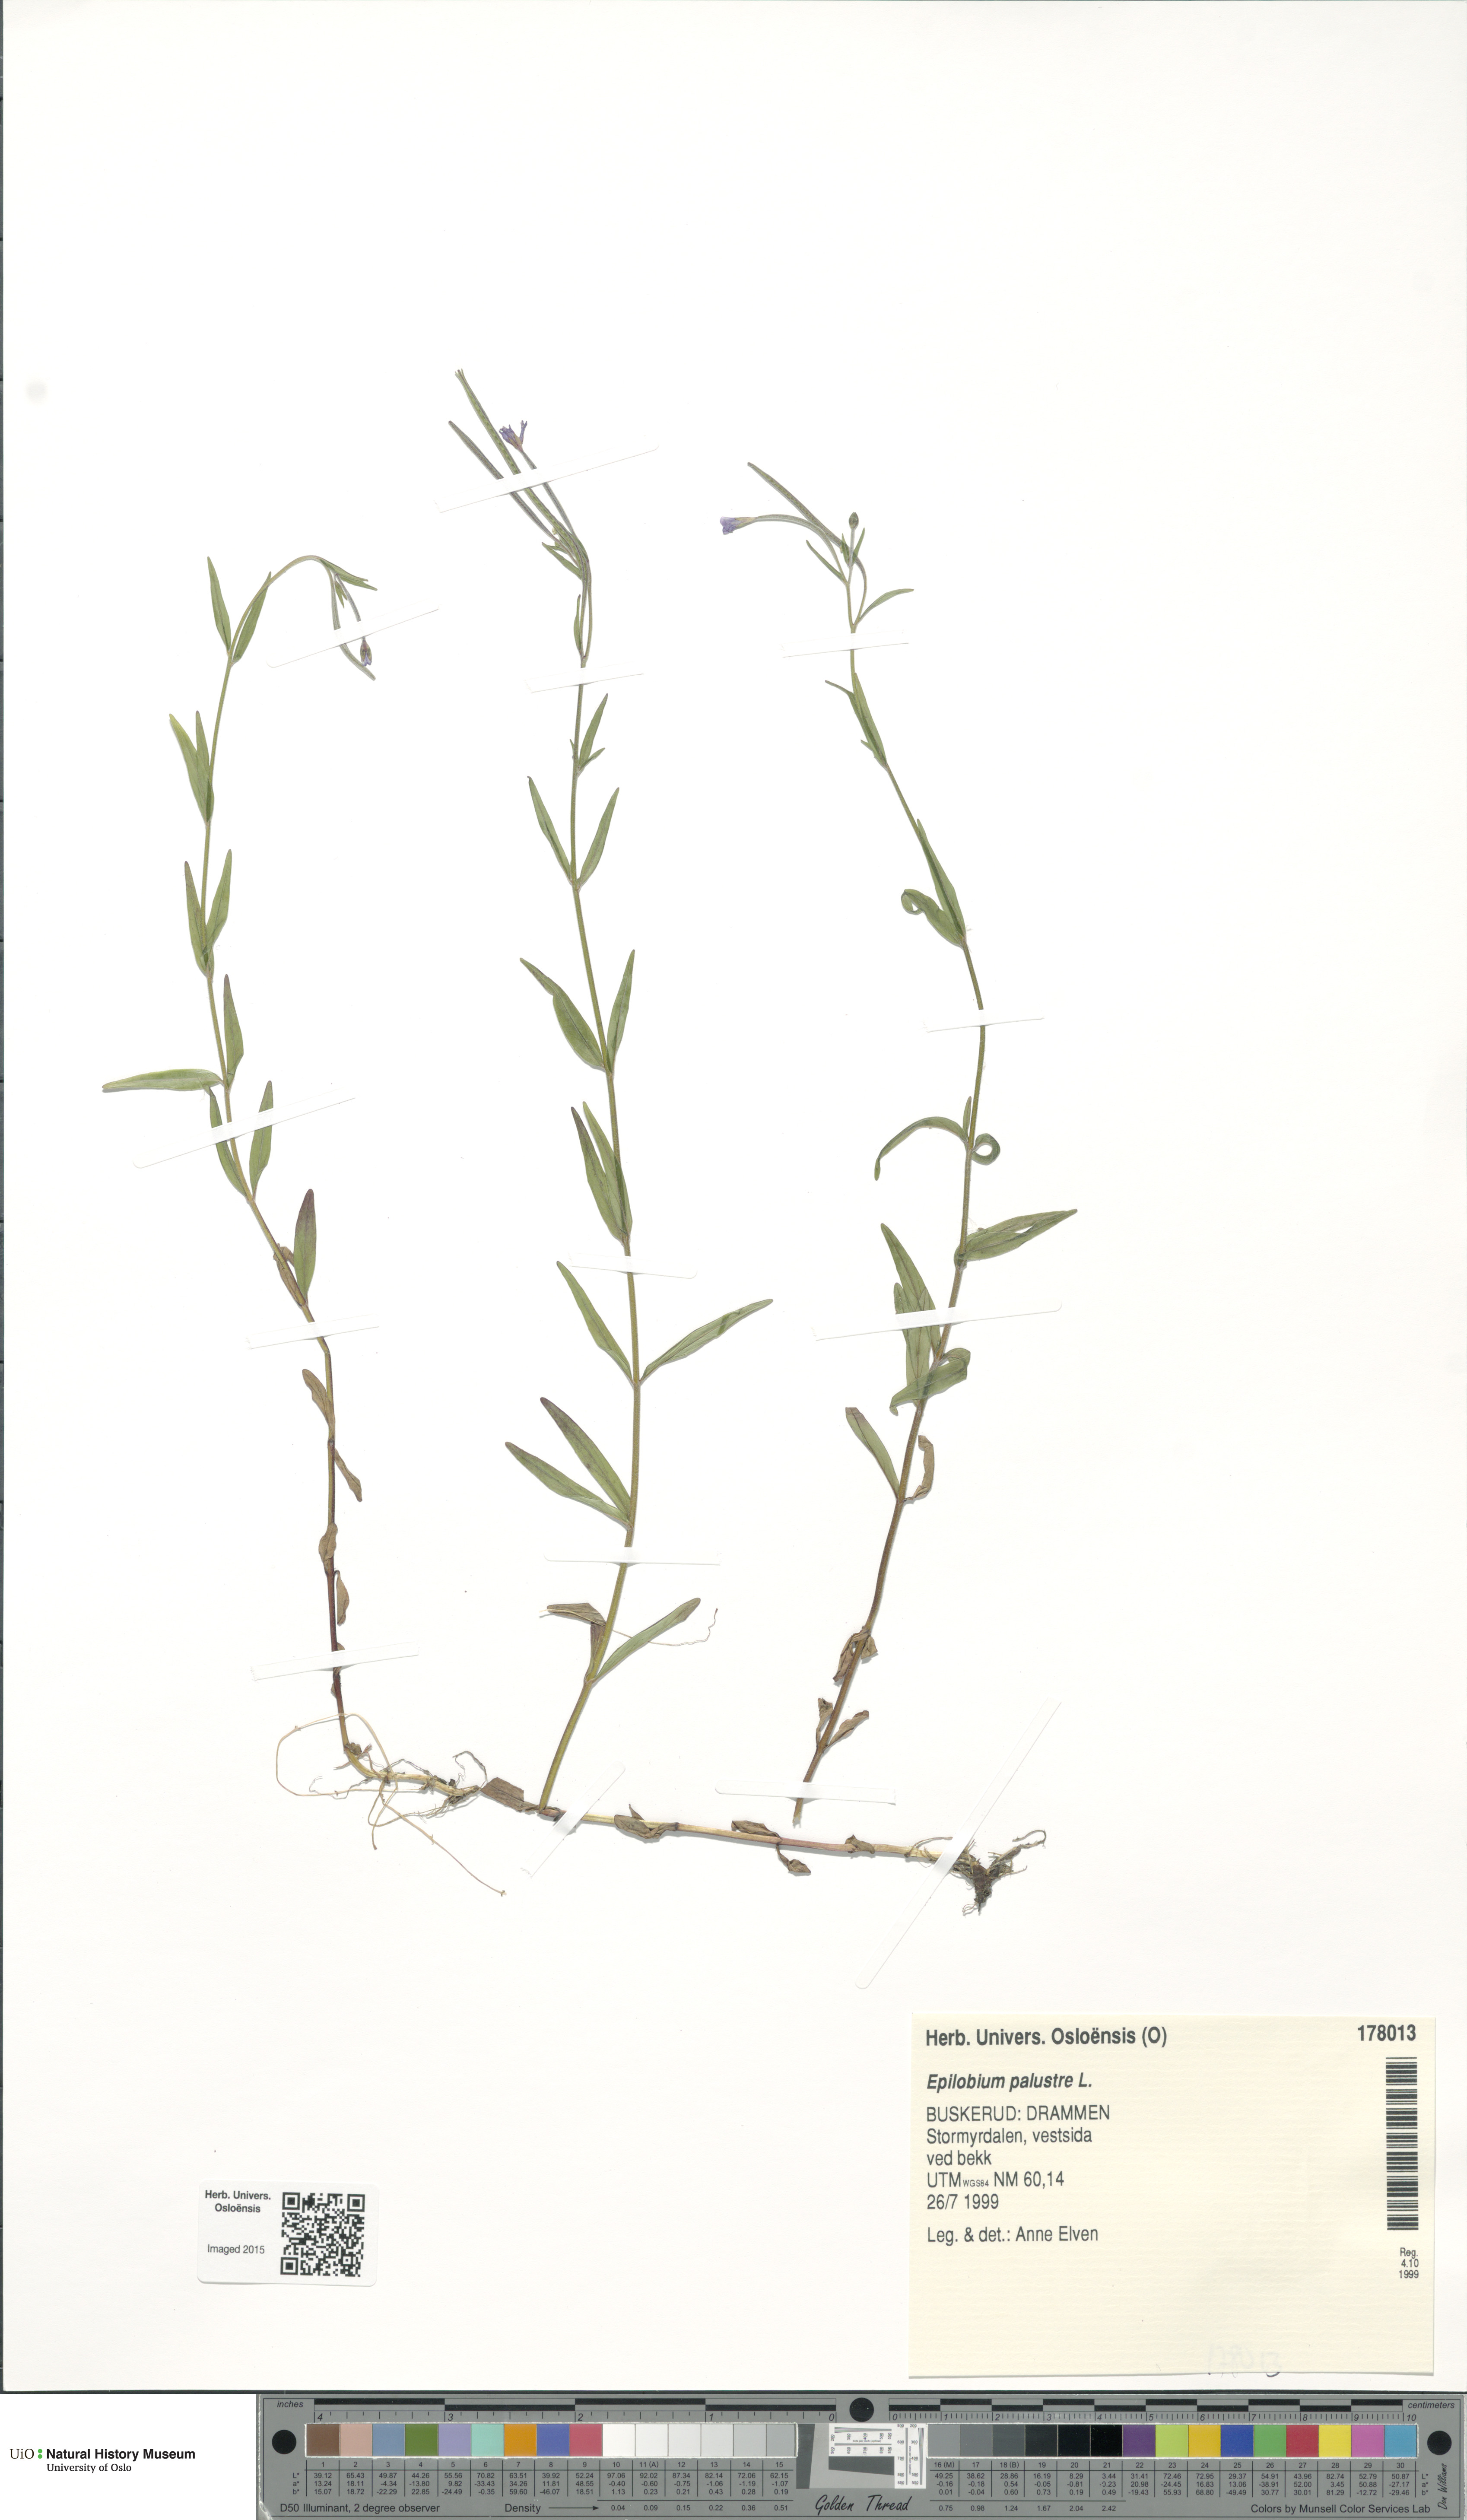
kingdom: Plantae
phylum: Tracheophyta
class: Magnoliopsida
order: Myrtales
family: Onagraceae
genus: Epilobium
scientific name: Epilobium palustre
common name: Marsh willowherb
